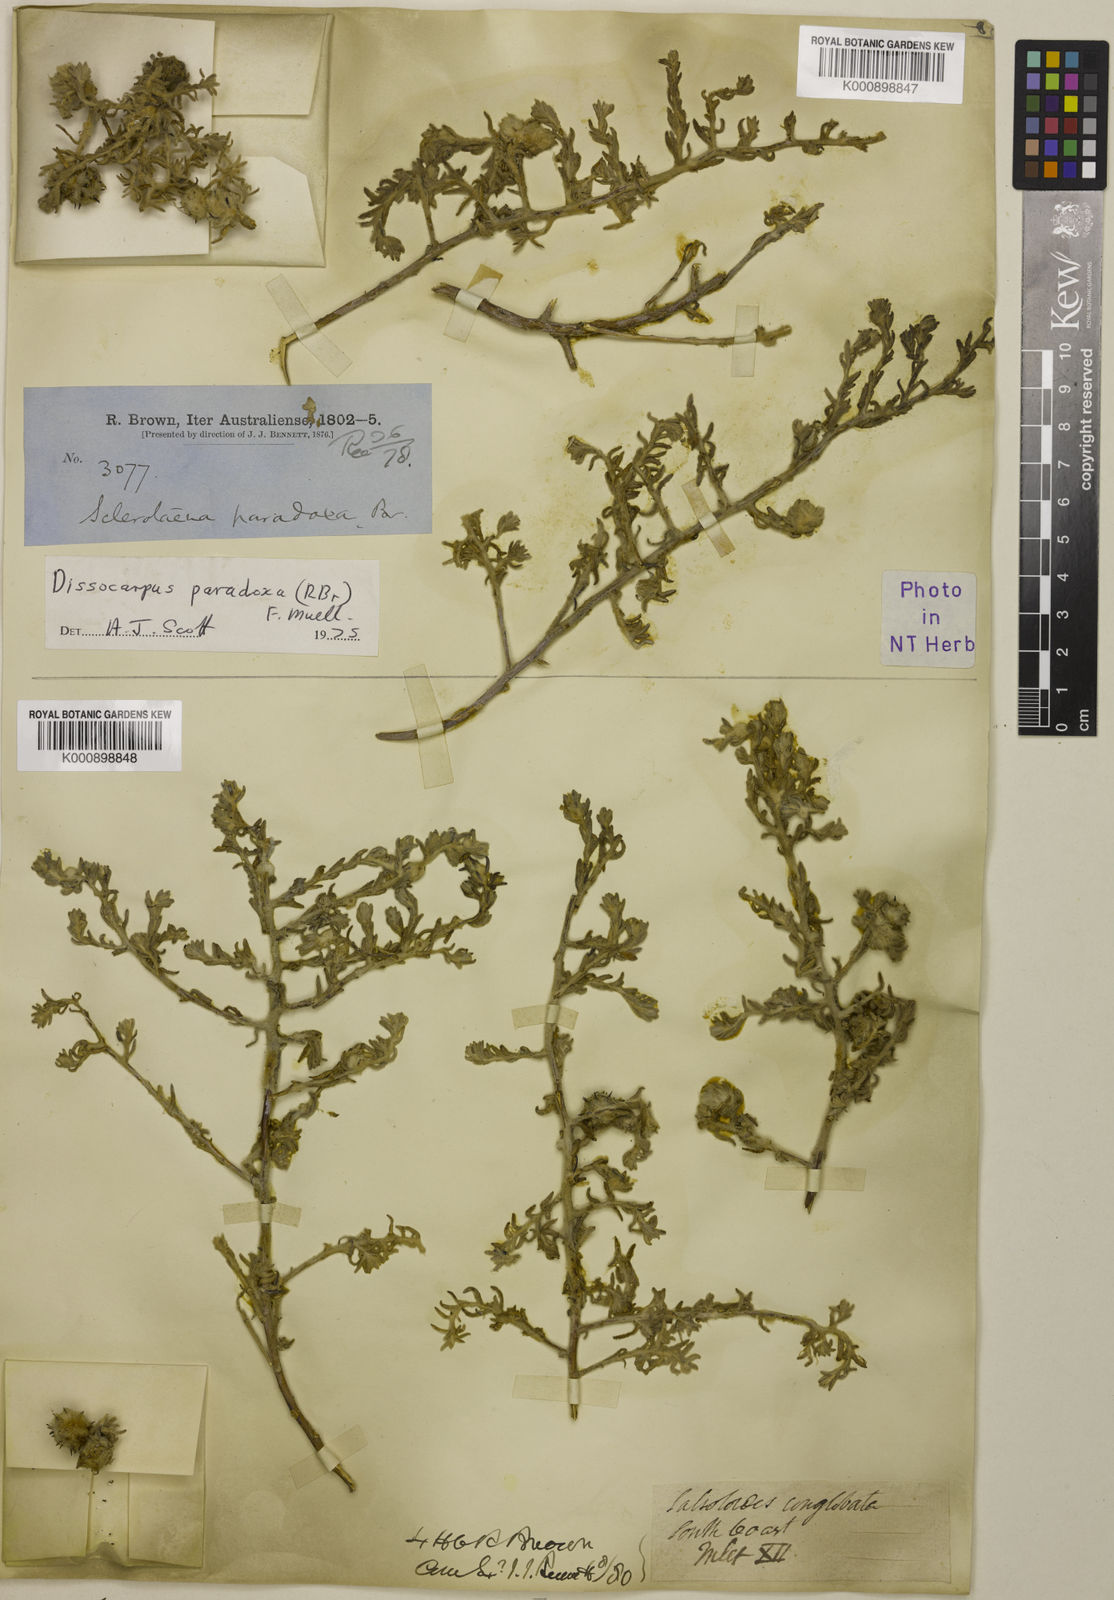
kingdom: Plantae
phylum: Tracheophyta
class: Magnoliopsida
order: Caryophyllales
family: Amaranthaceae
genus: Dissocarpus
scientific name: Dissocarpus paradoxus
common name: Bur-saltbush
